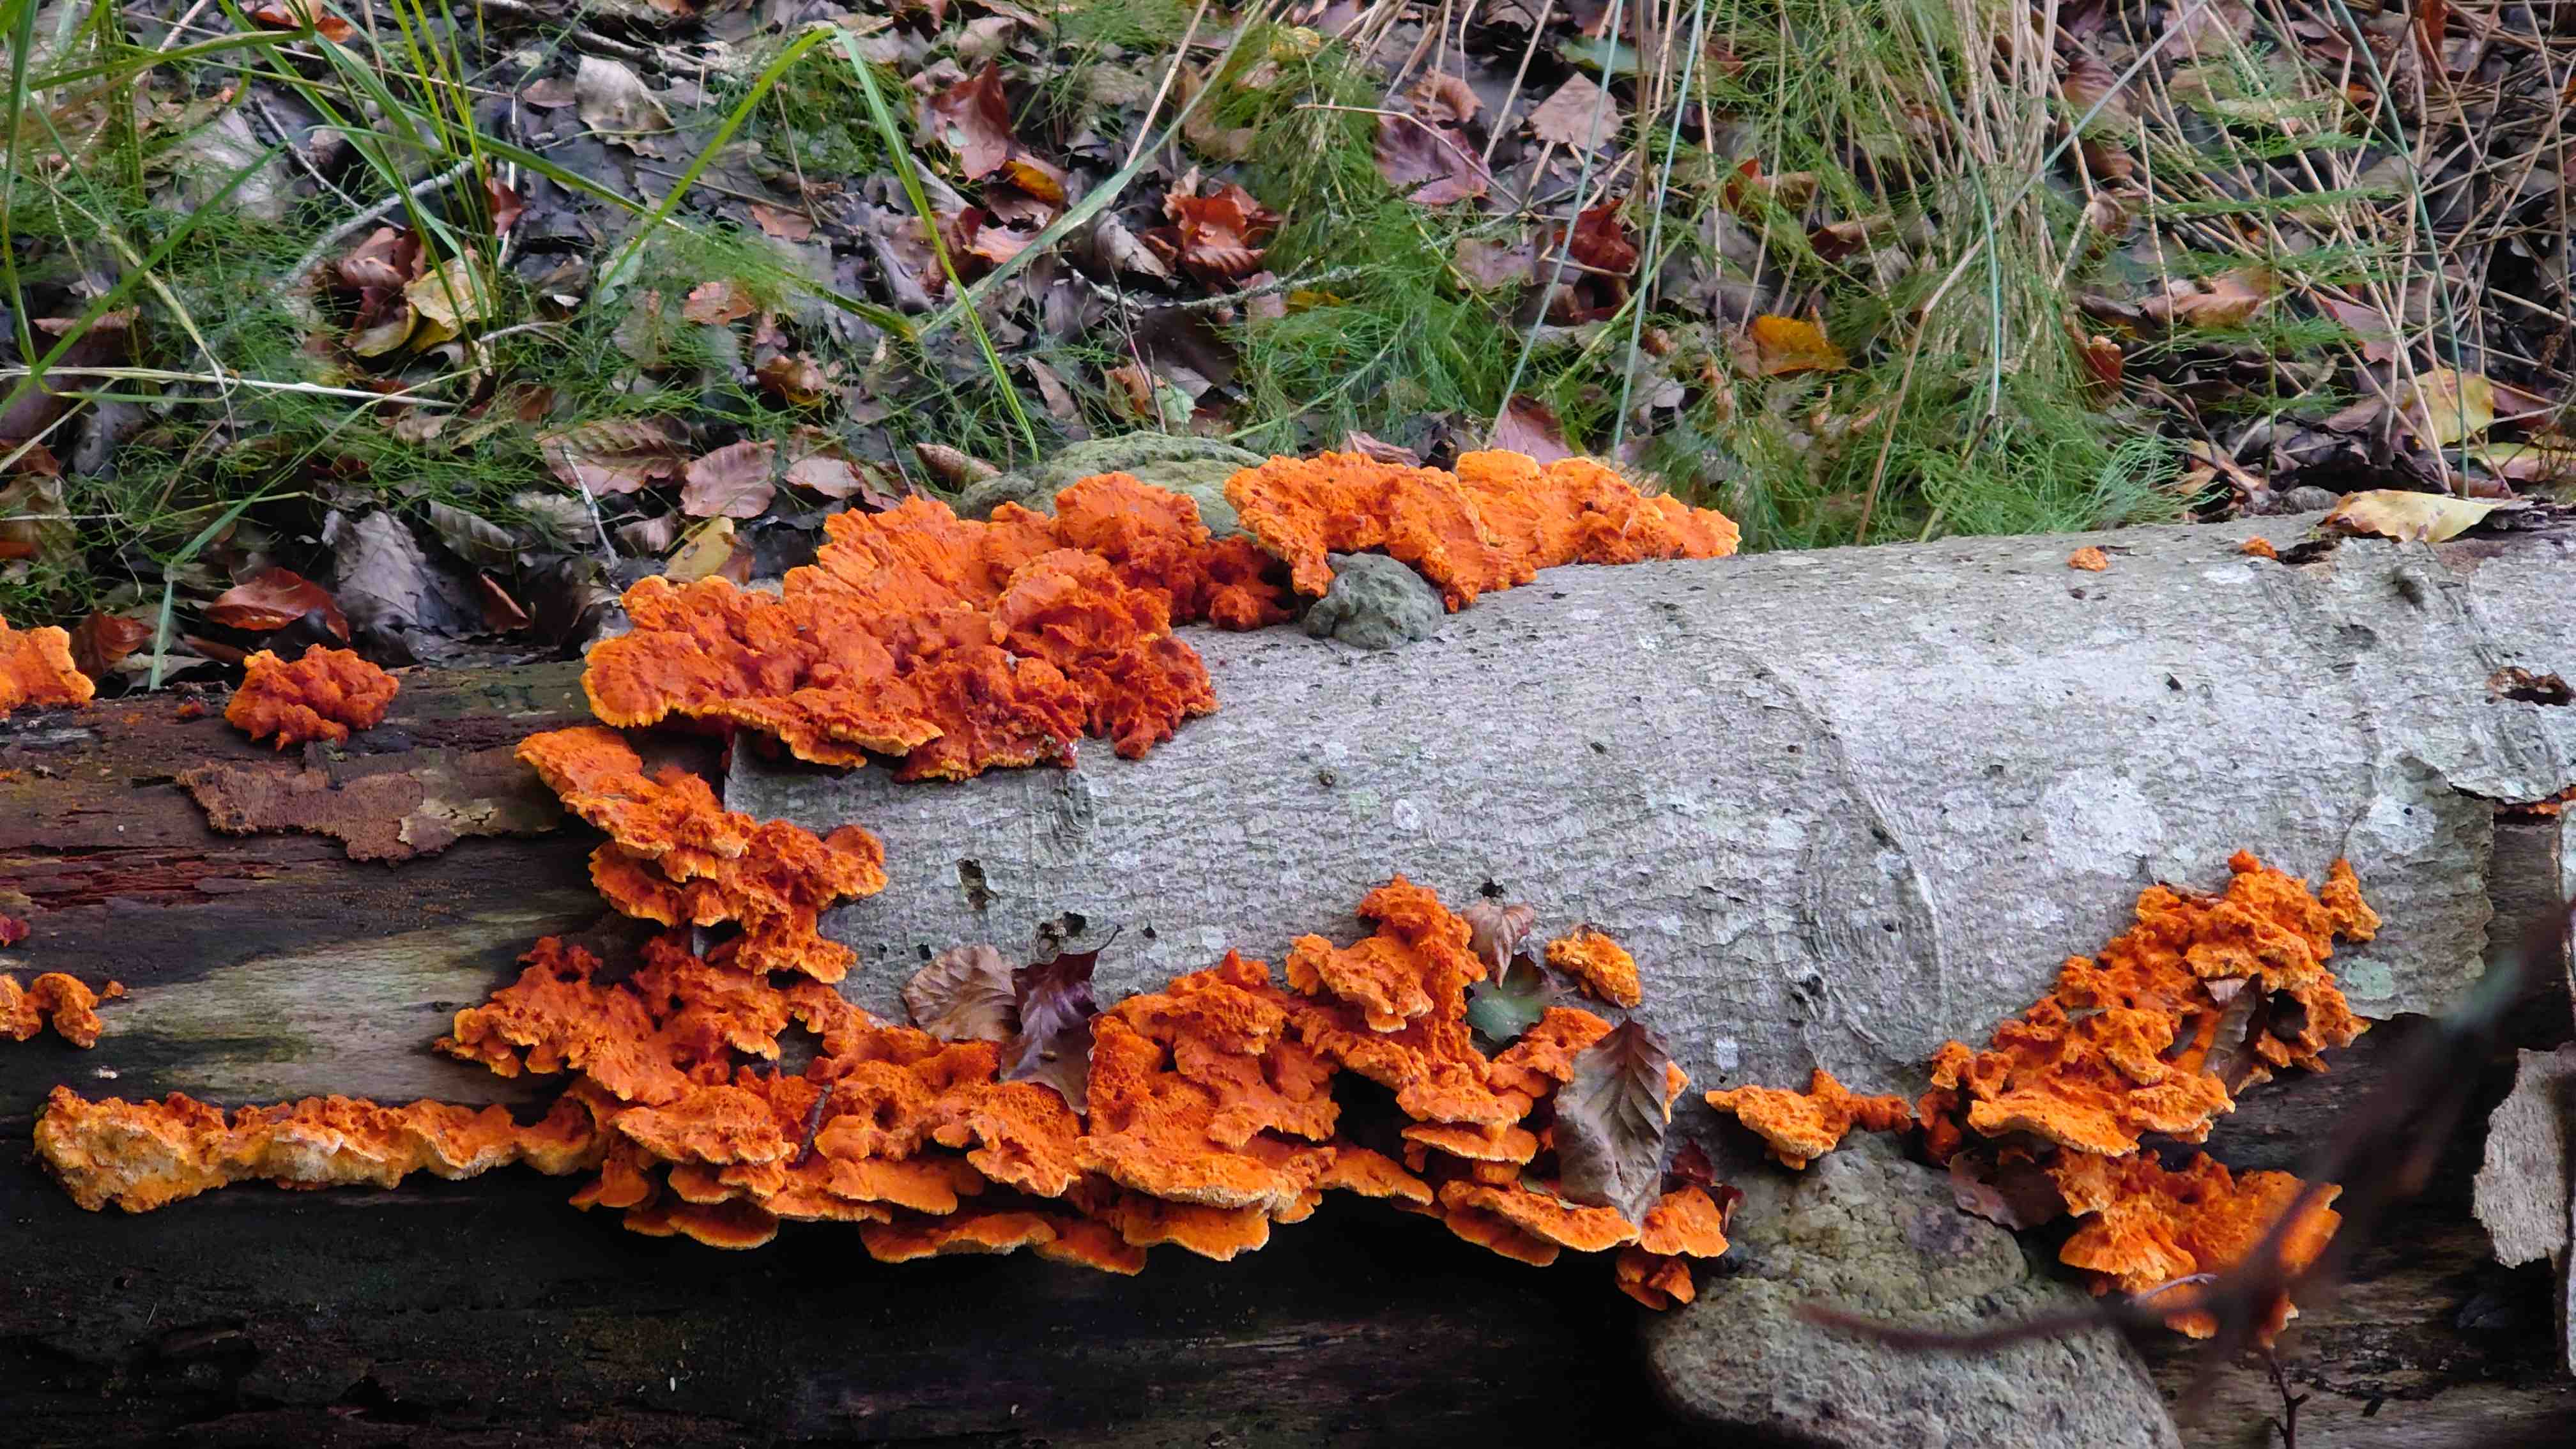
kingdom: Fungi
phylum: Basidiomycota
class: Agaricomycetes
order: Polyporales
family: Pycnoporellaceae
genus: Pycnoporellus
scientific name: Pycnoporellus fulgens
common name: flammeporesvamp
